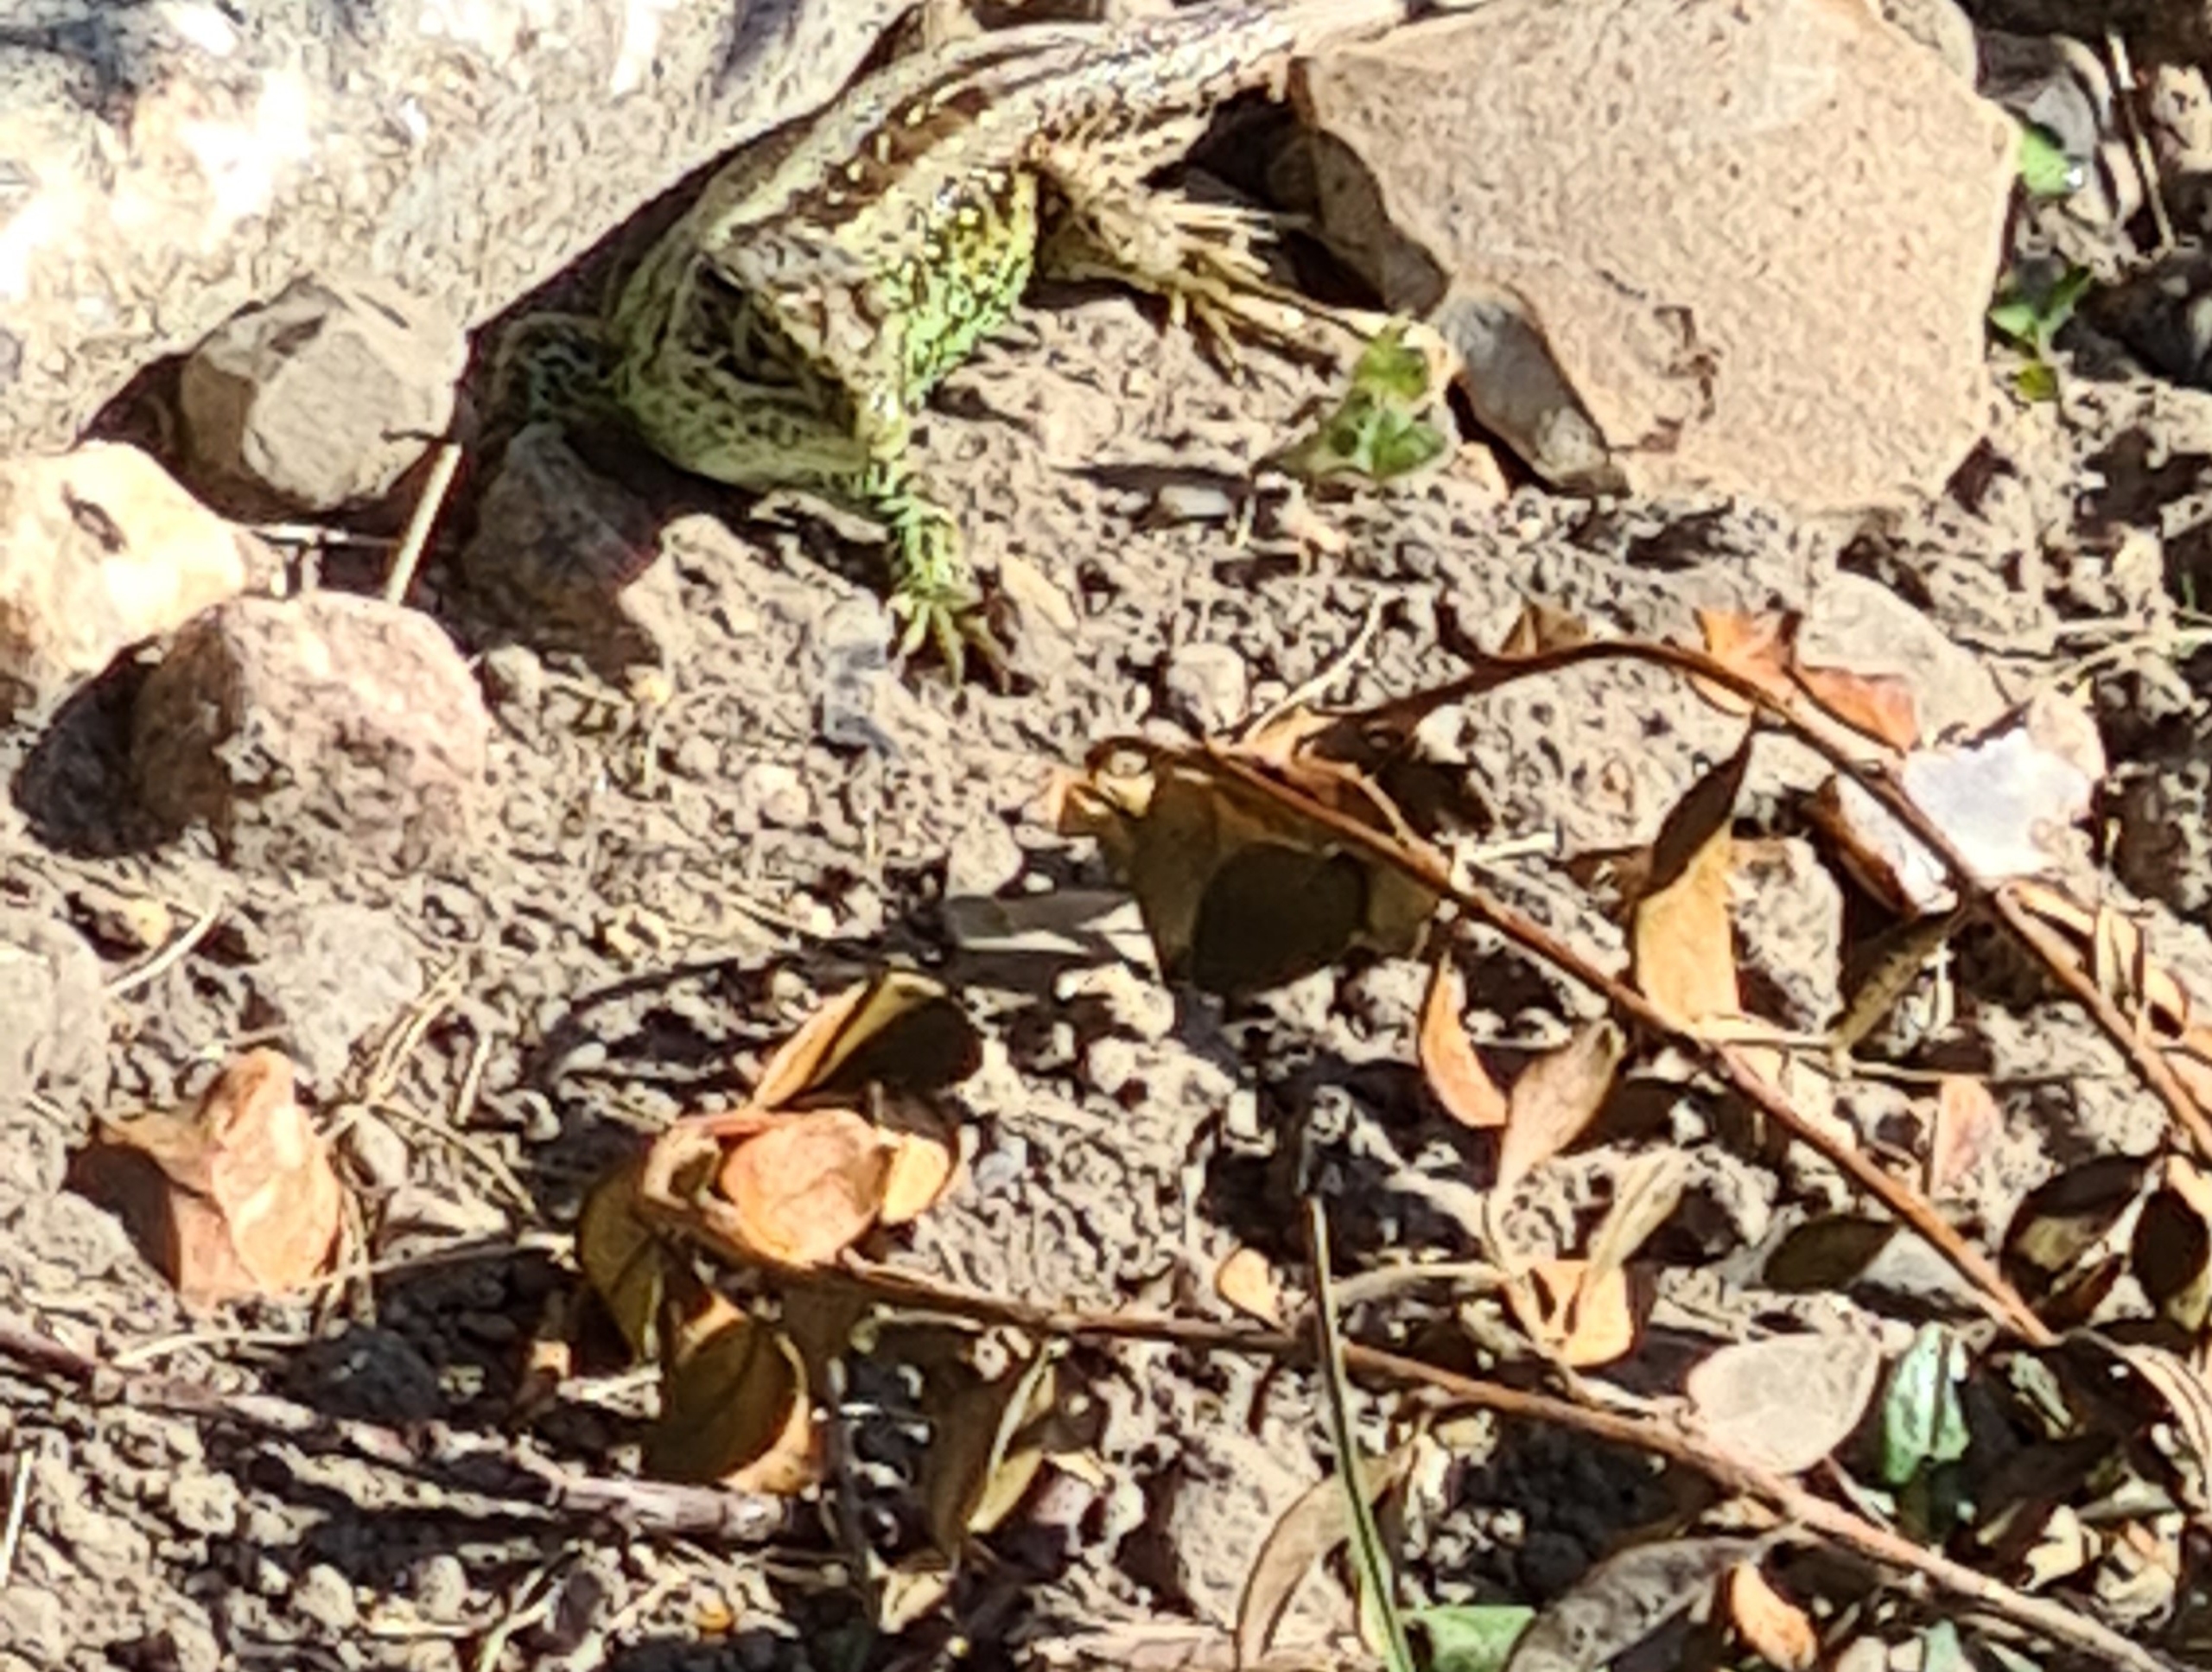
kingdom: Animalia
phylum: Chordata
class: Squamata
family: Lacertidae
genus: Lacerta
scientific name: Lacerta agilis
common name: Markfirben
